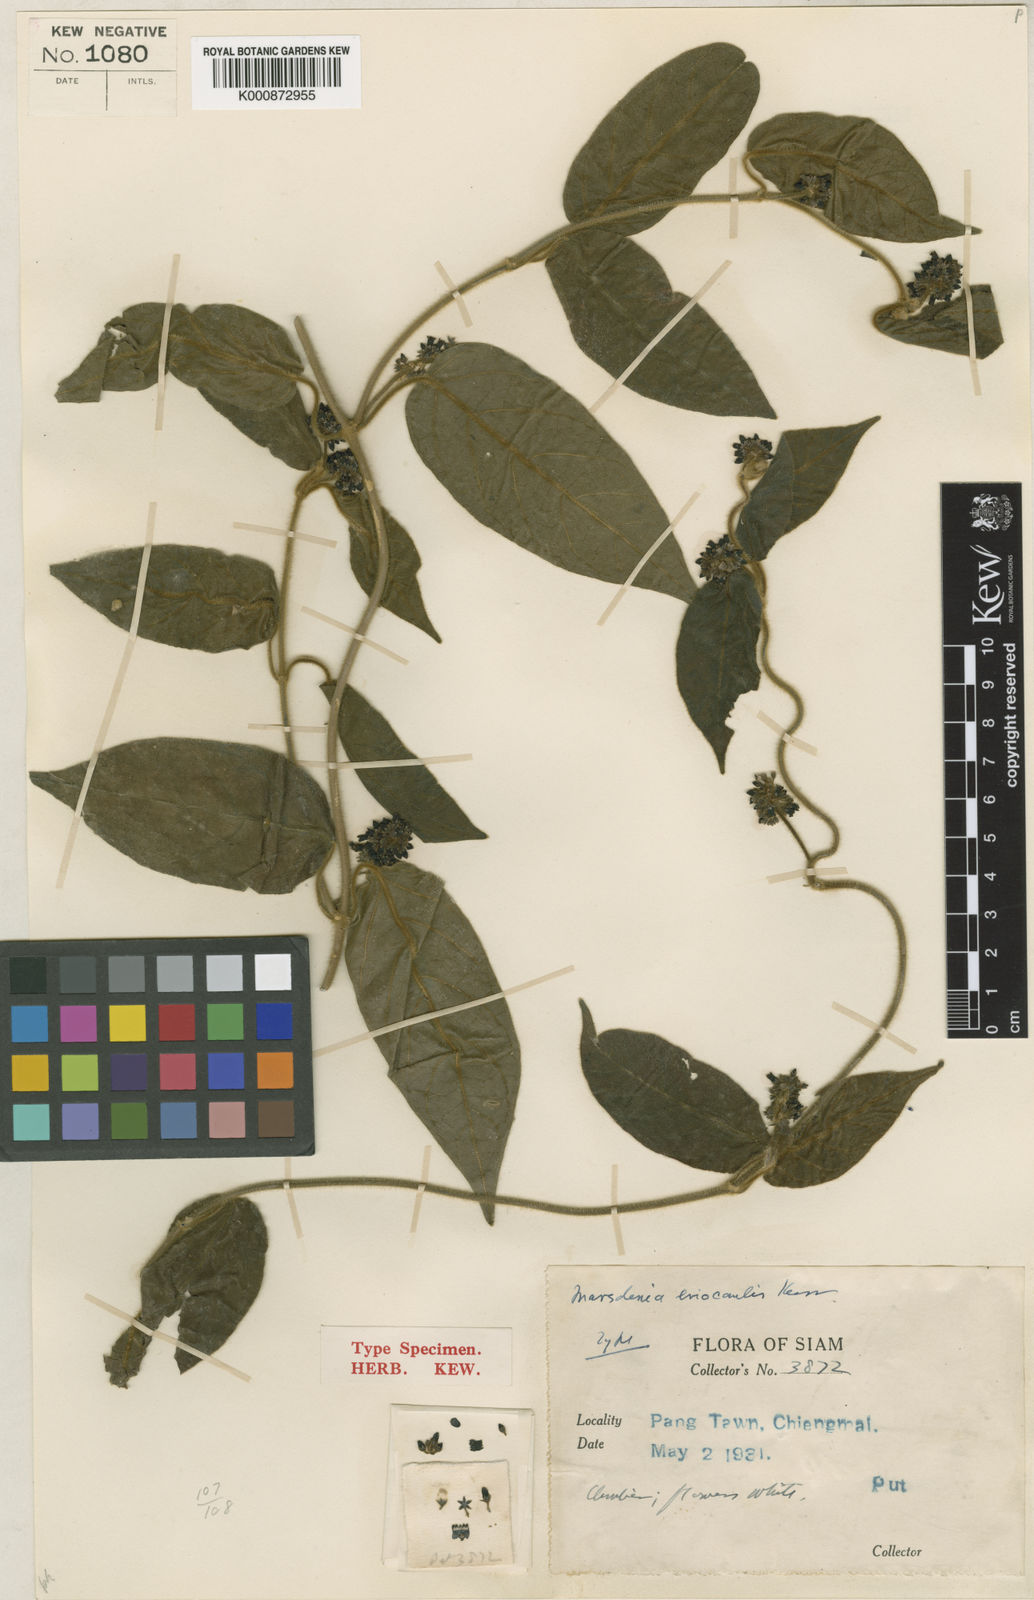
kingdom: Plantae
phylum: Tracheophyta
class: Magnoliopsida
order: Gentianales
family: Apocynaceae
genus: Marsdenia
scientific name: Marsdenia eriocaulis
